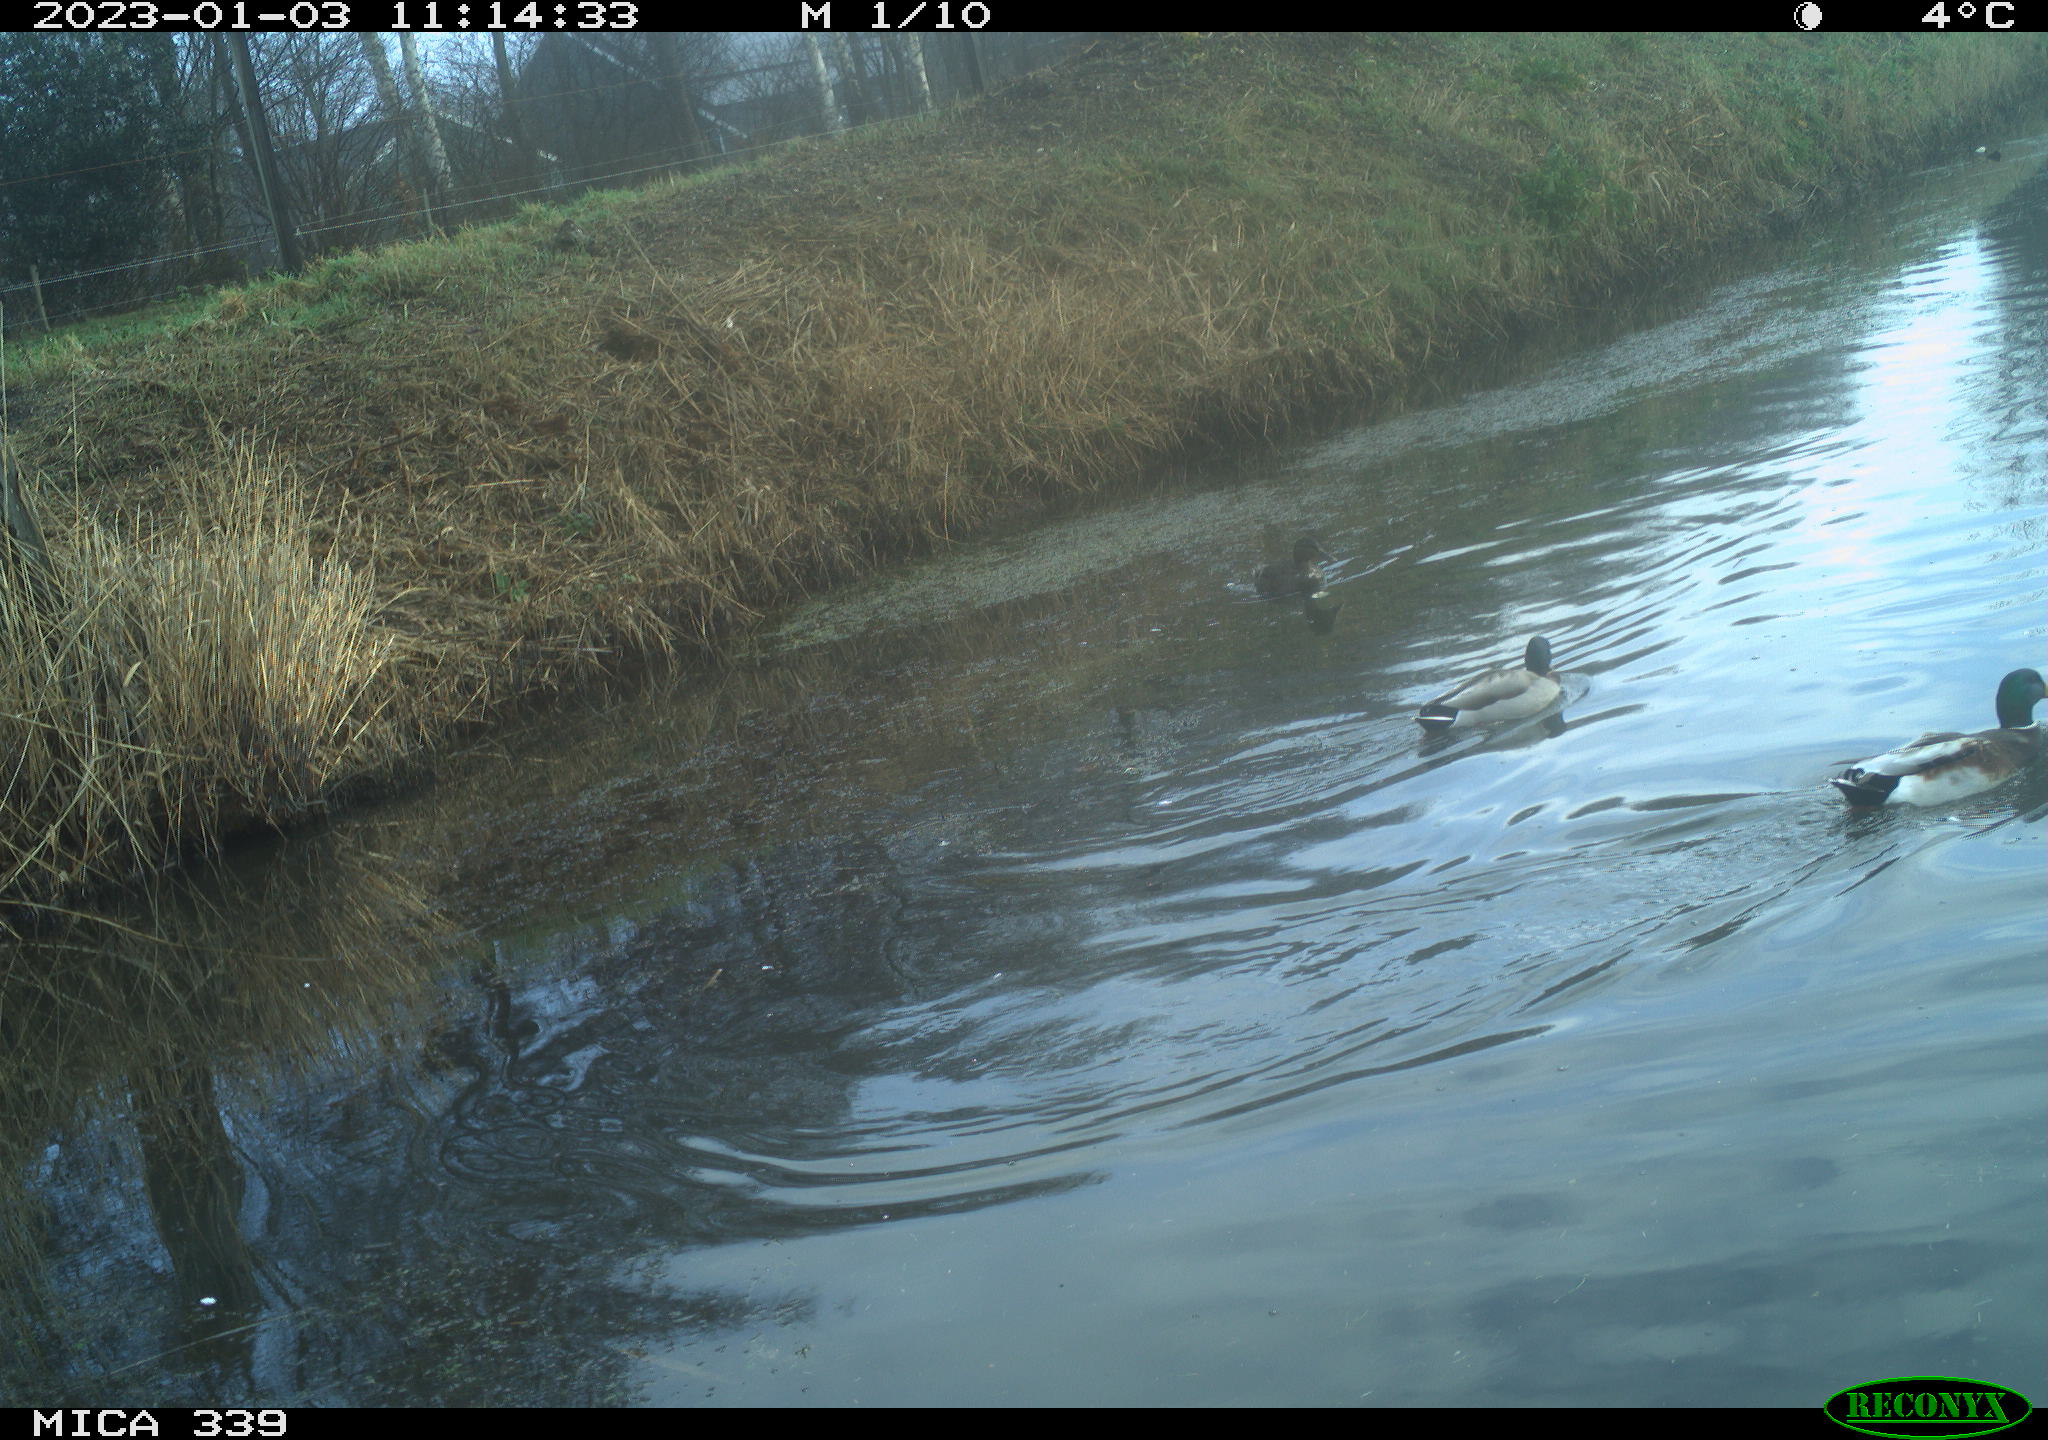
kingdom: Animalia
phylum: Chordata
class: Aves
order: Anseriformes
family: Anatidae
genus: Anas
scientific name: Anas
